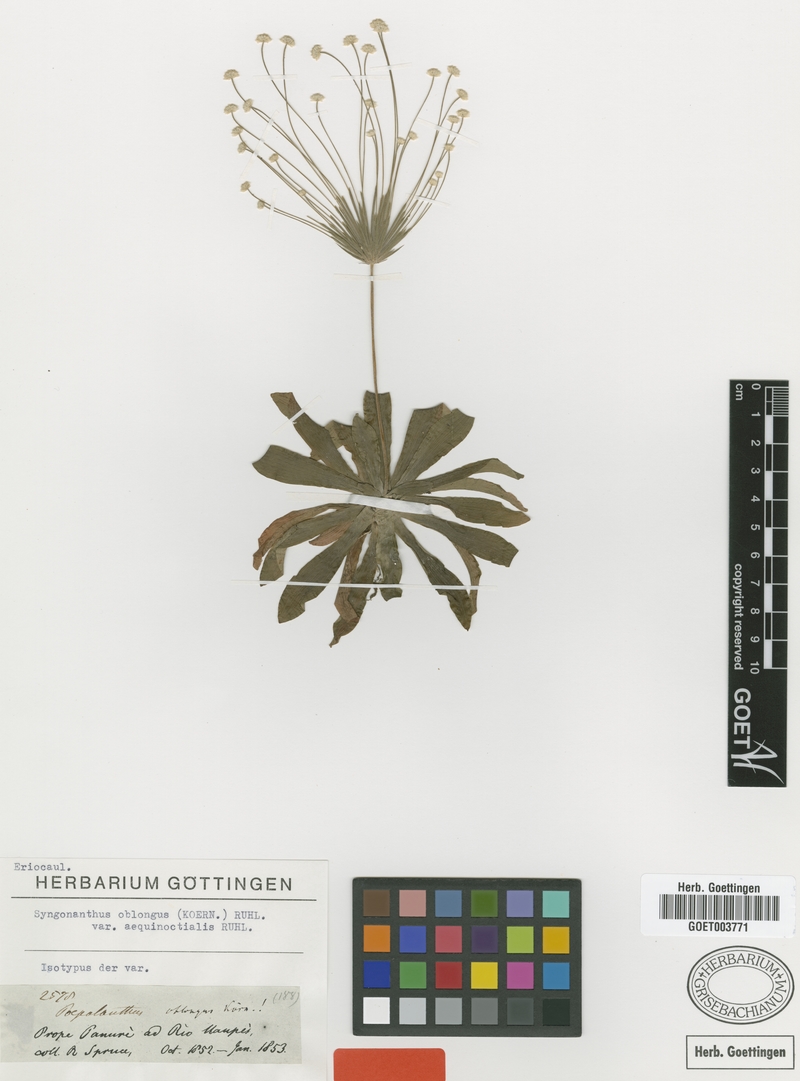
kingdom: Plantae
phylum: Tracheophyta
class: Liliopsida
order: Poales
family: Eriocaulaceae
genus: Syngonanthus
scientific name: Syngonanthus oblongus
